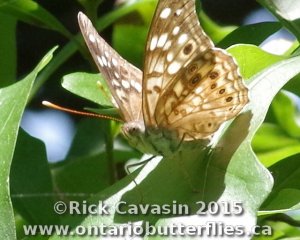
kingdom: Animalia
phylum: Arthropoda
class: Insecta
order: Lepidoptera
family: Nymphalidae
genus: Asterocampa
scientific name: Asterocampa celtis
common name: Hackberry Emperor
